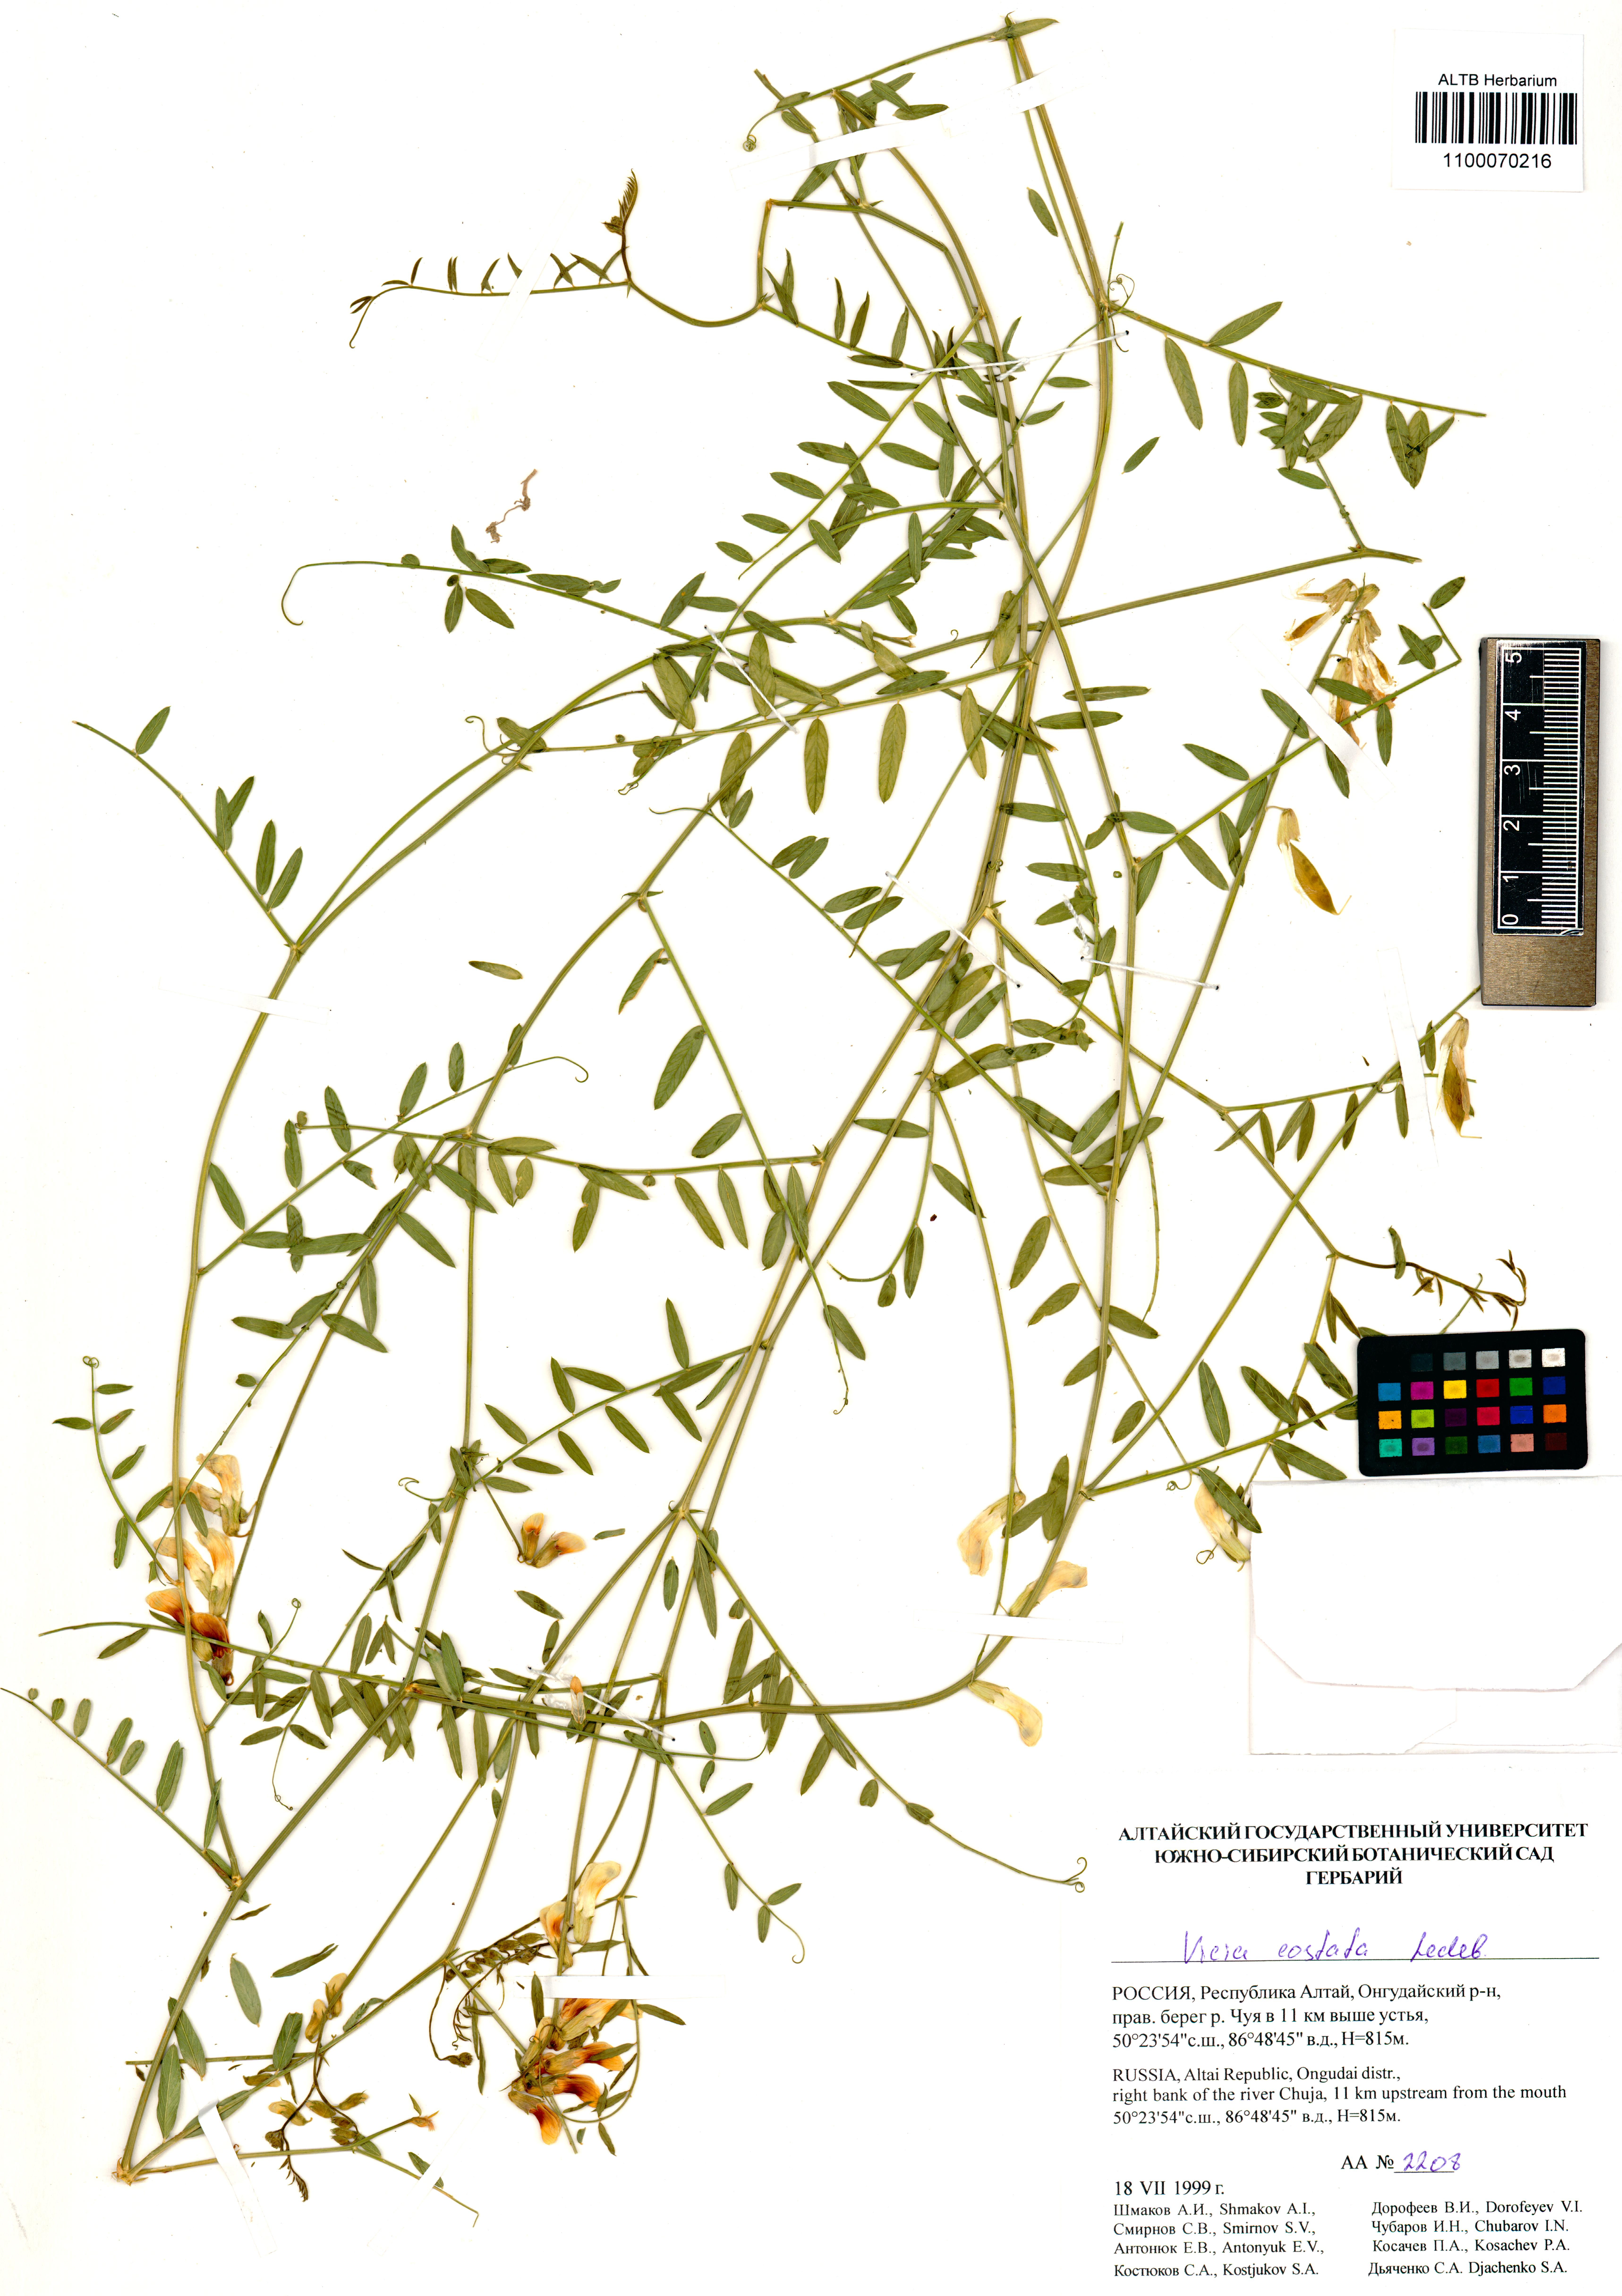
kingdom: Plantae
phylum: Tracheophyta
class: Magnoliopsida
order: Fabales
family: Fabaceae
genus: Vicia
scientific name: Vicia costata
